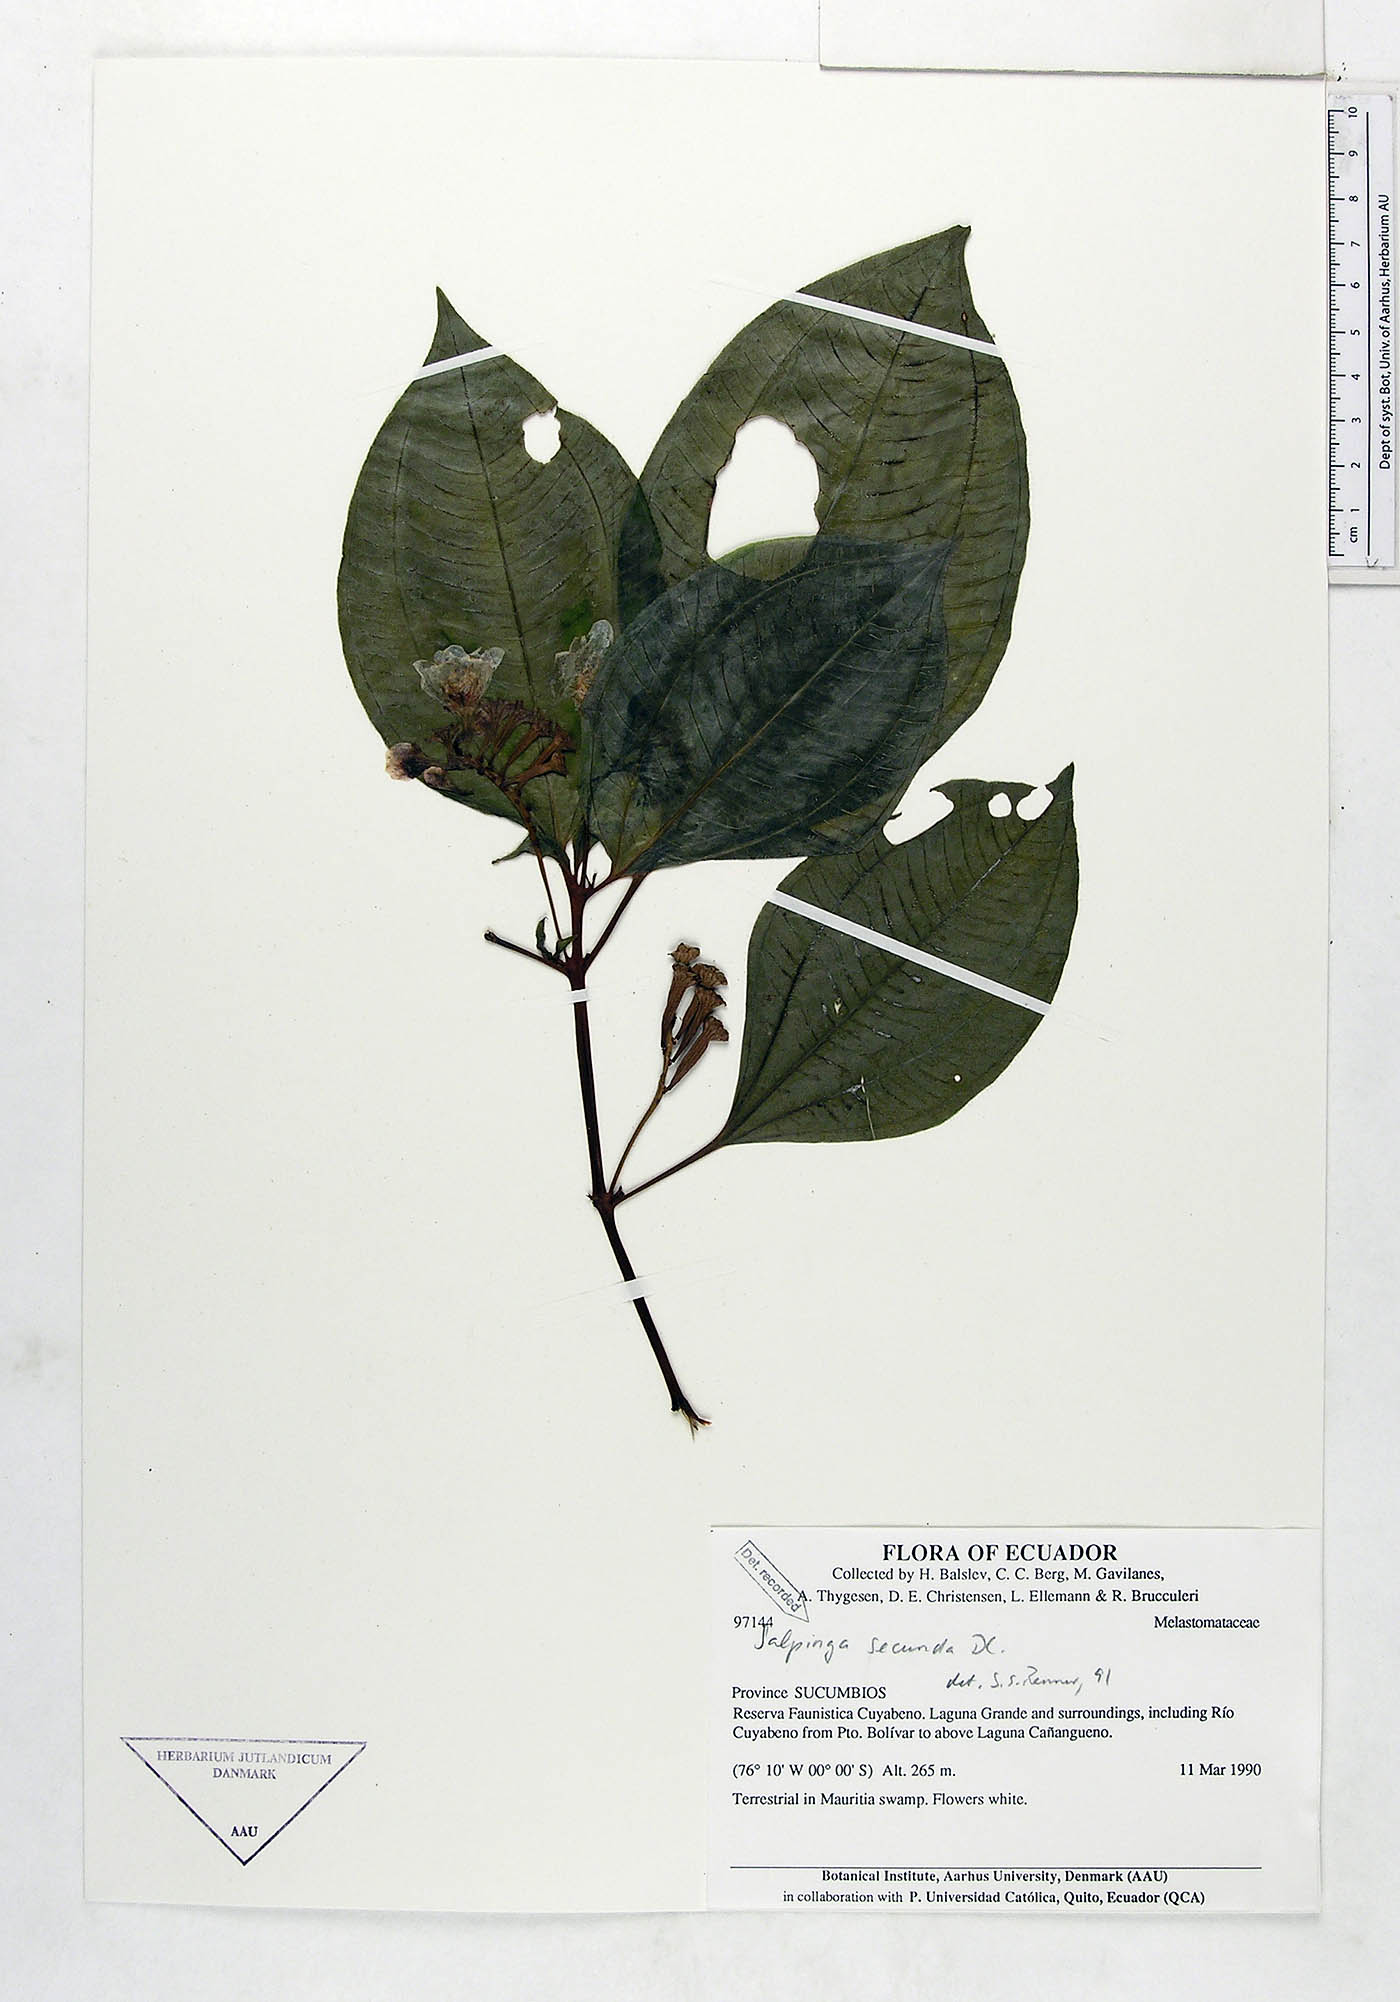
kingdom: Plantae
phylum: Tracheophyta
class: Magnoliopsida
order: Myrtales
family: Melastomataceae
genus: Salpinga
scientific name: Salpinga secunda
